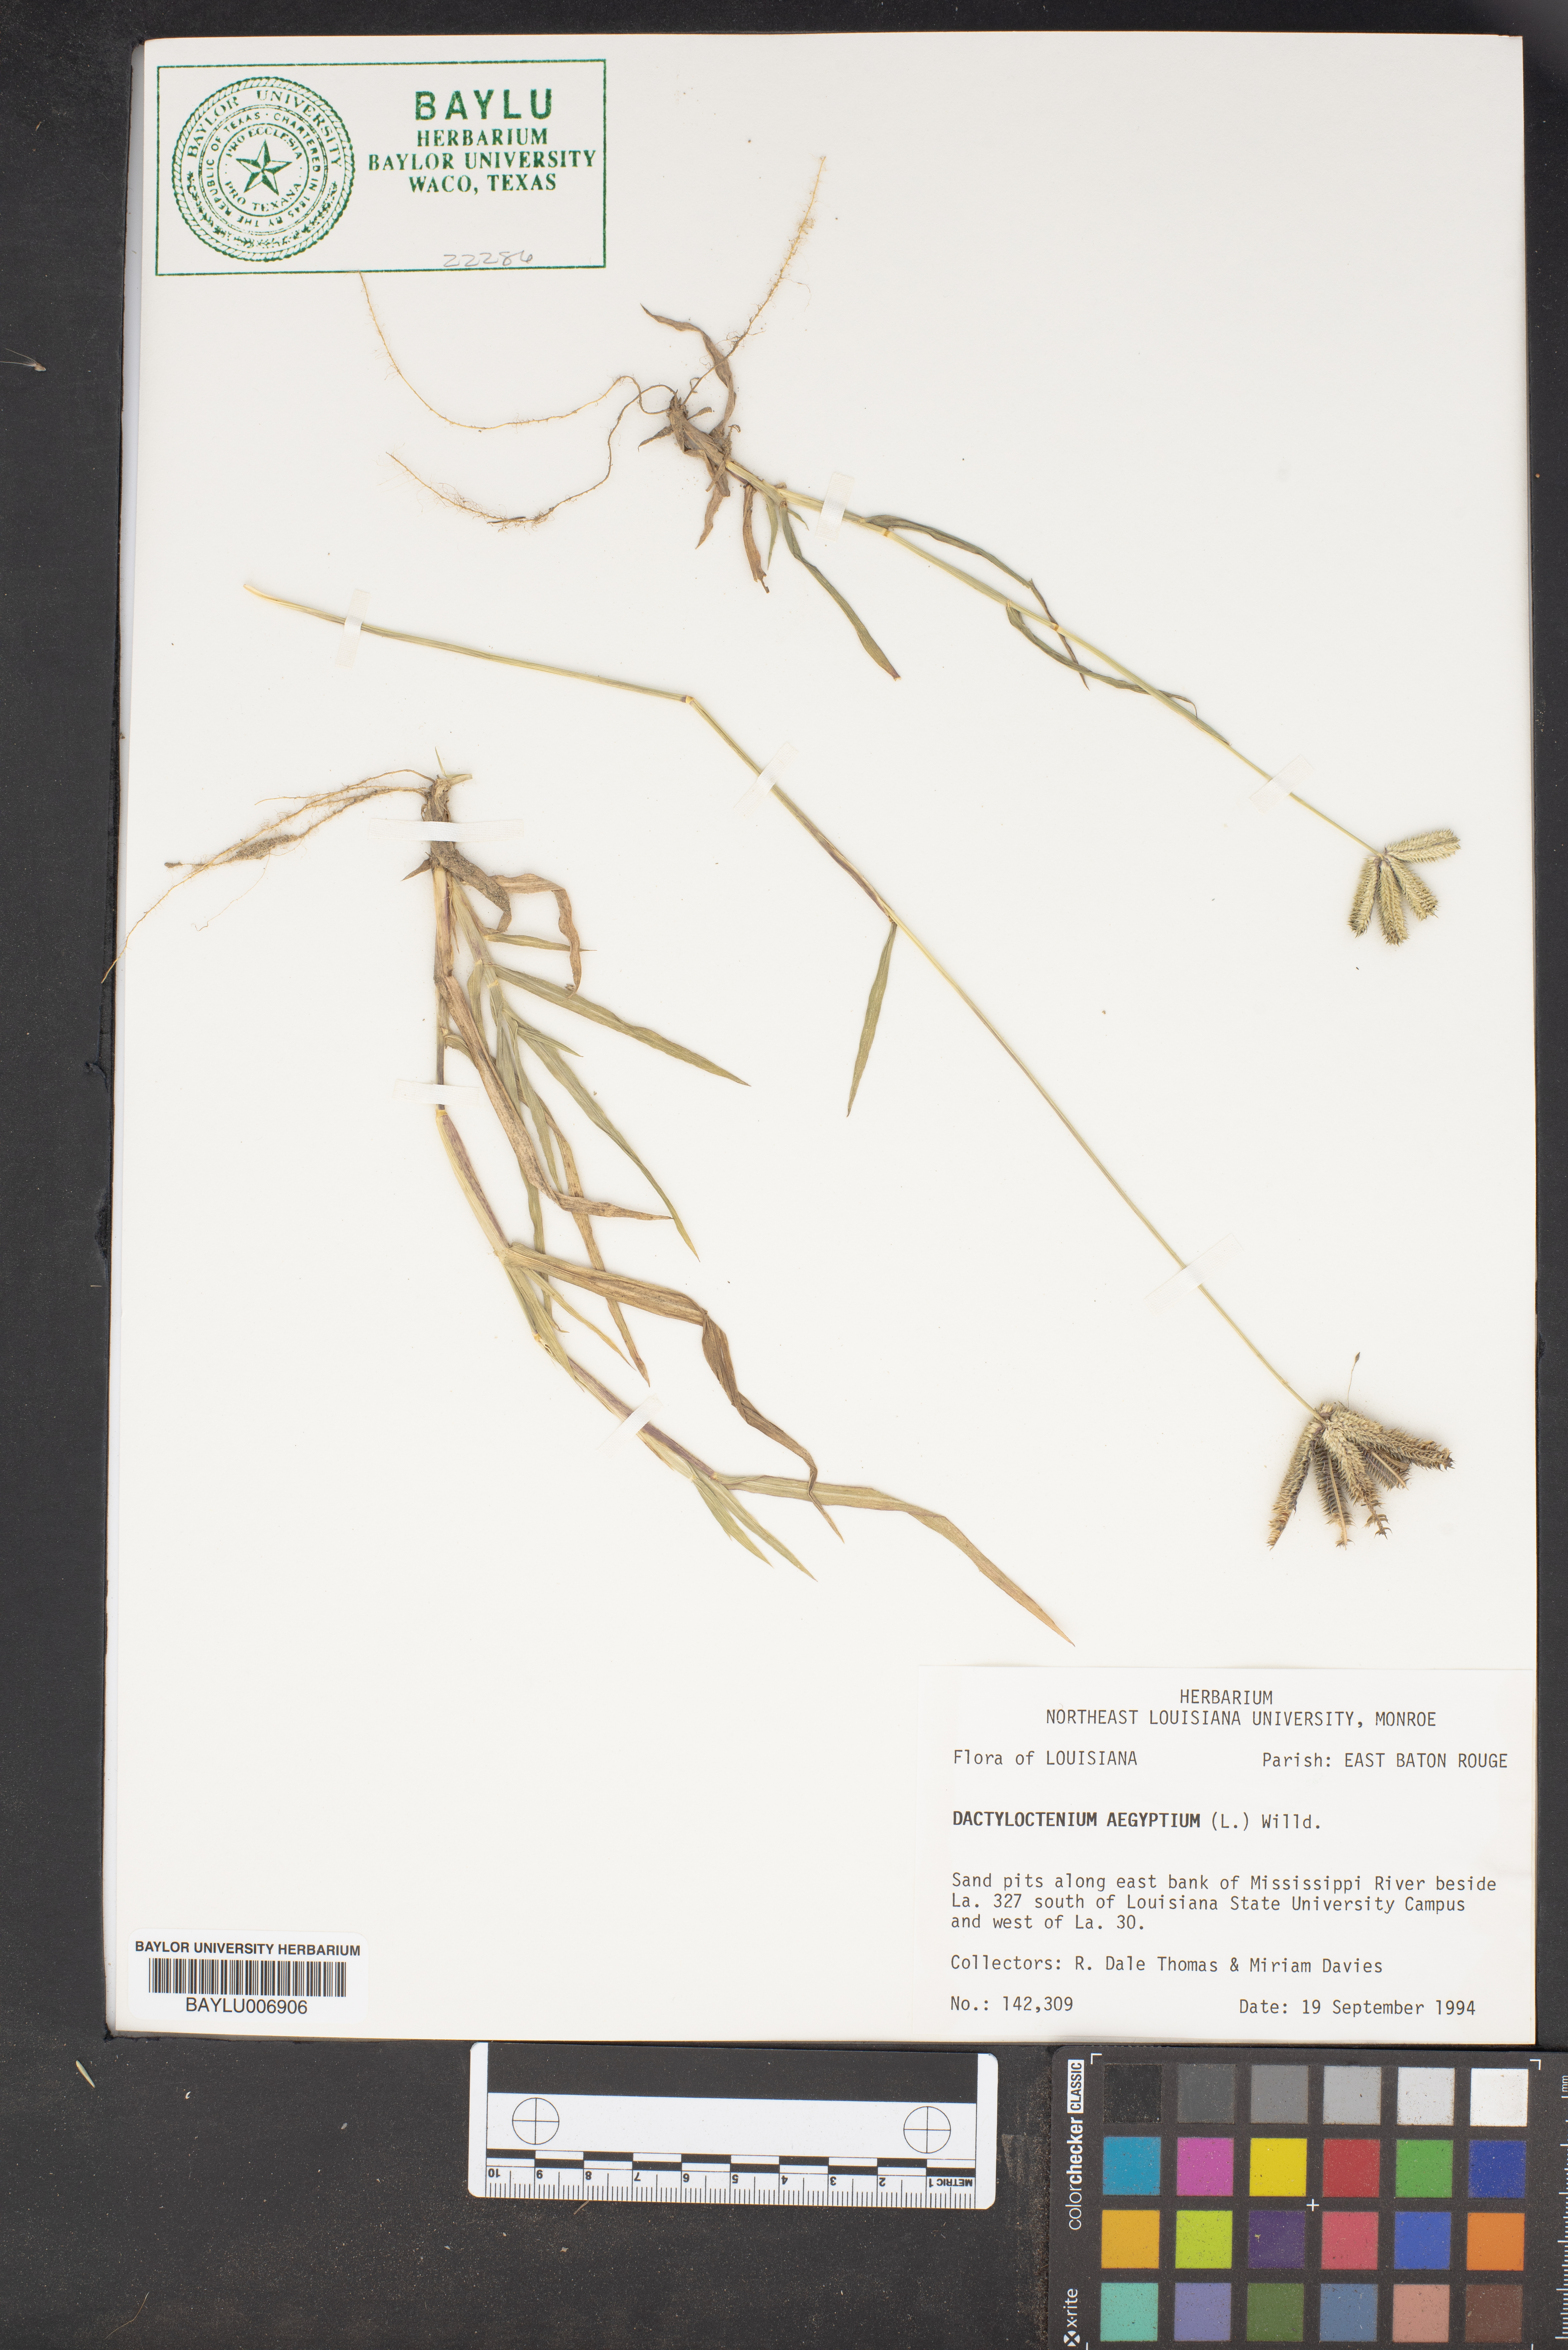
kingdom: Plantae
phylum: Tracheophyta
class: Liliopsida
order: Poales
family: Poaceae
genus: Dactyloctenium
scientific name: Dactyloctenium aegyptium
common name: Egyptian grass
